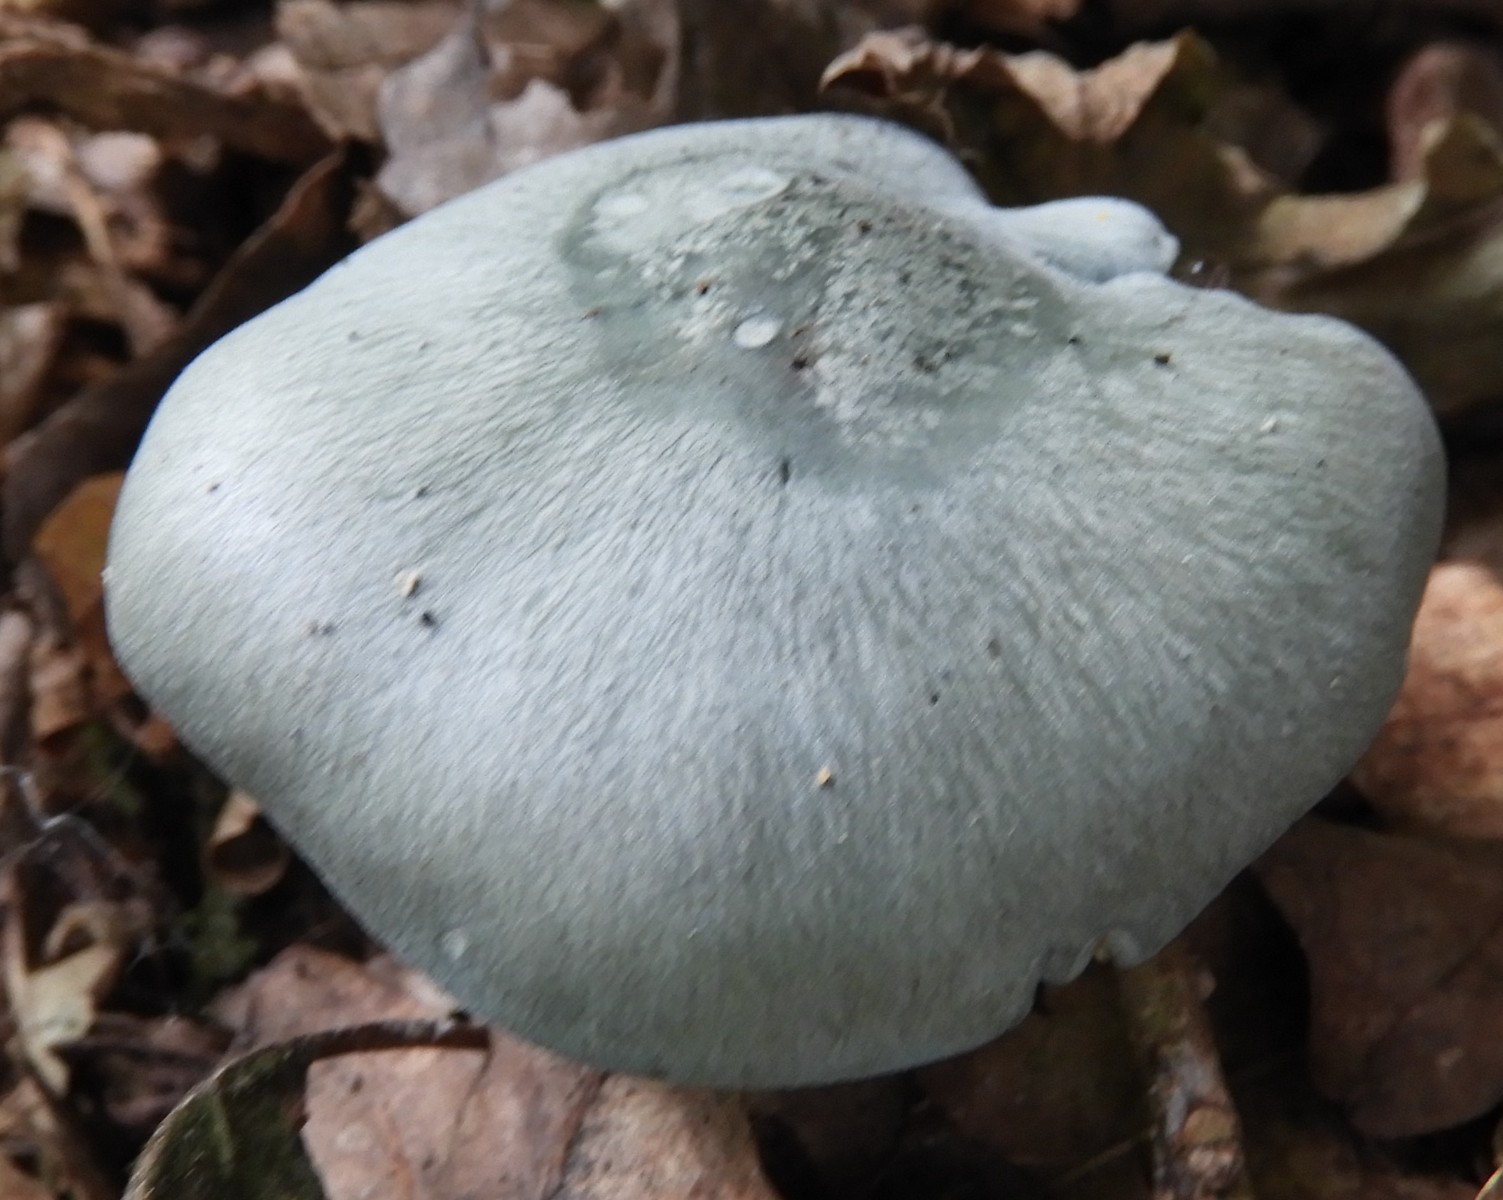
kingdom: Fungi
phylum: Basidiomycota
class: Agaricomycetes
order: Agaricales
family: Tricholomataceae
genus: Clitocybe
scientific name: Clitocybe odora
